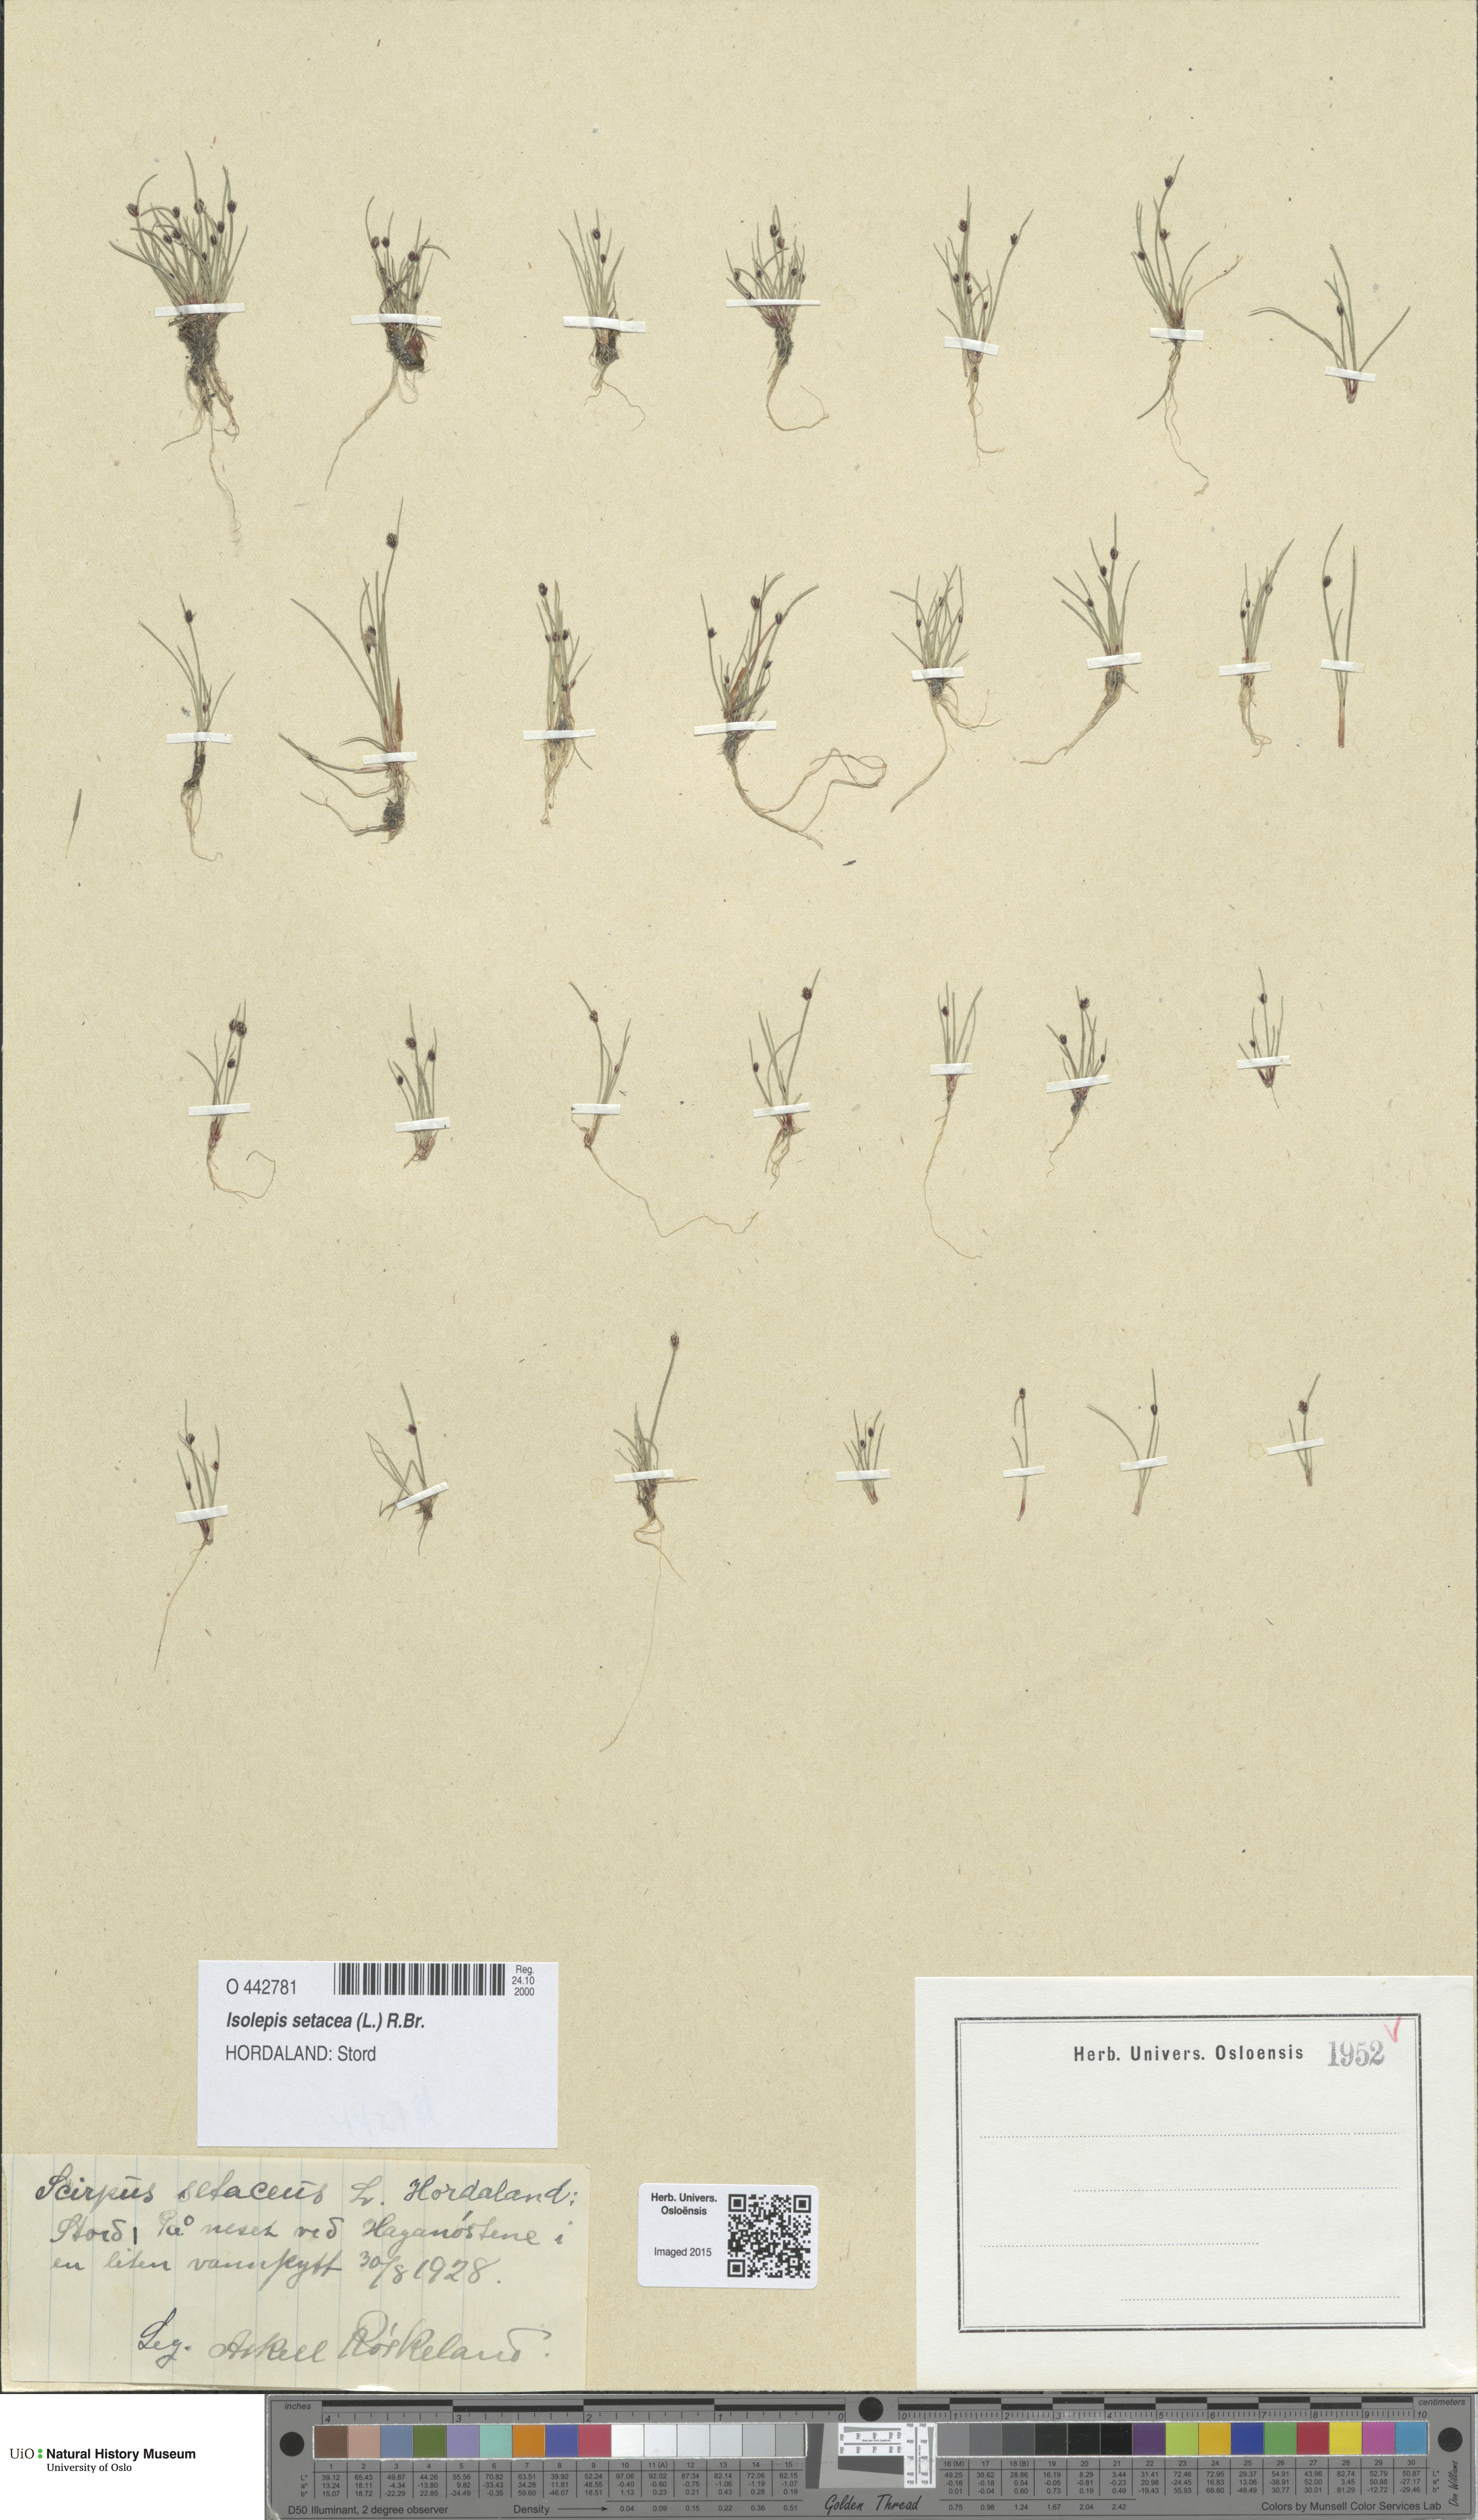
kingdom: Plantae
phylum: Tracheophyta
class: Liliopsida
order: Poales
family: Cyperaceae
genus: Isolepis
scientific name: Isolepis setacea
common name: Bristle club-rush
